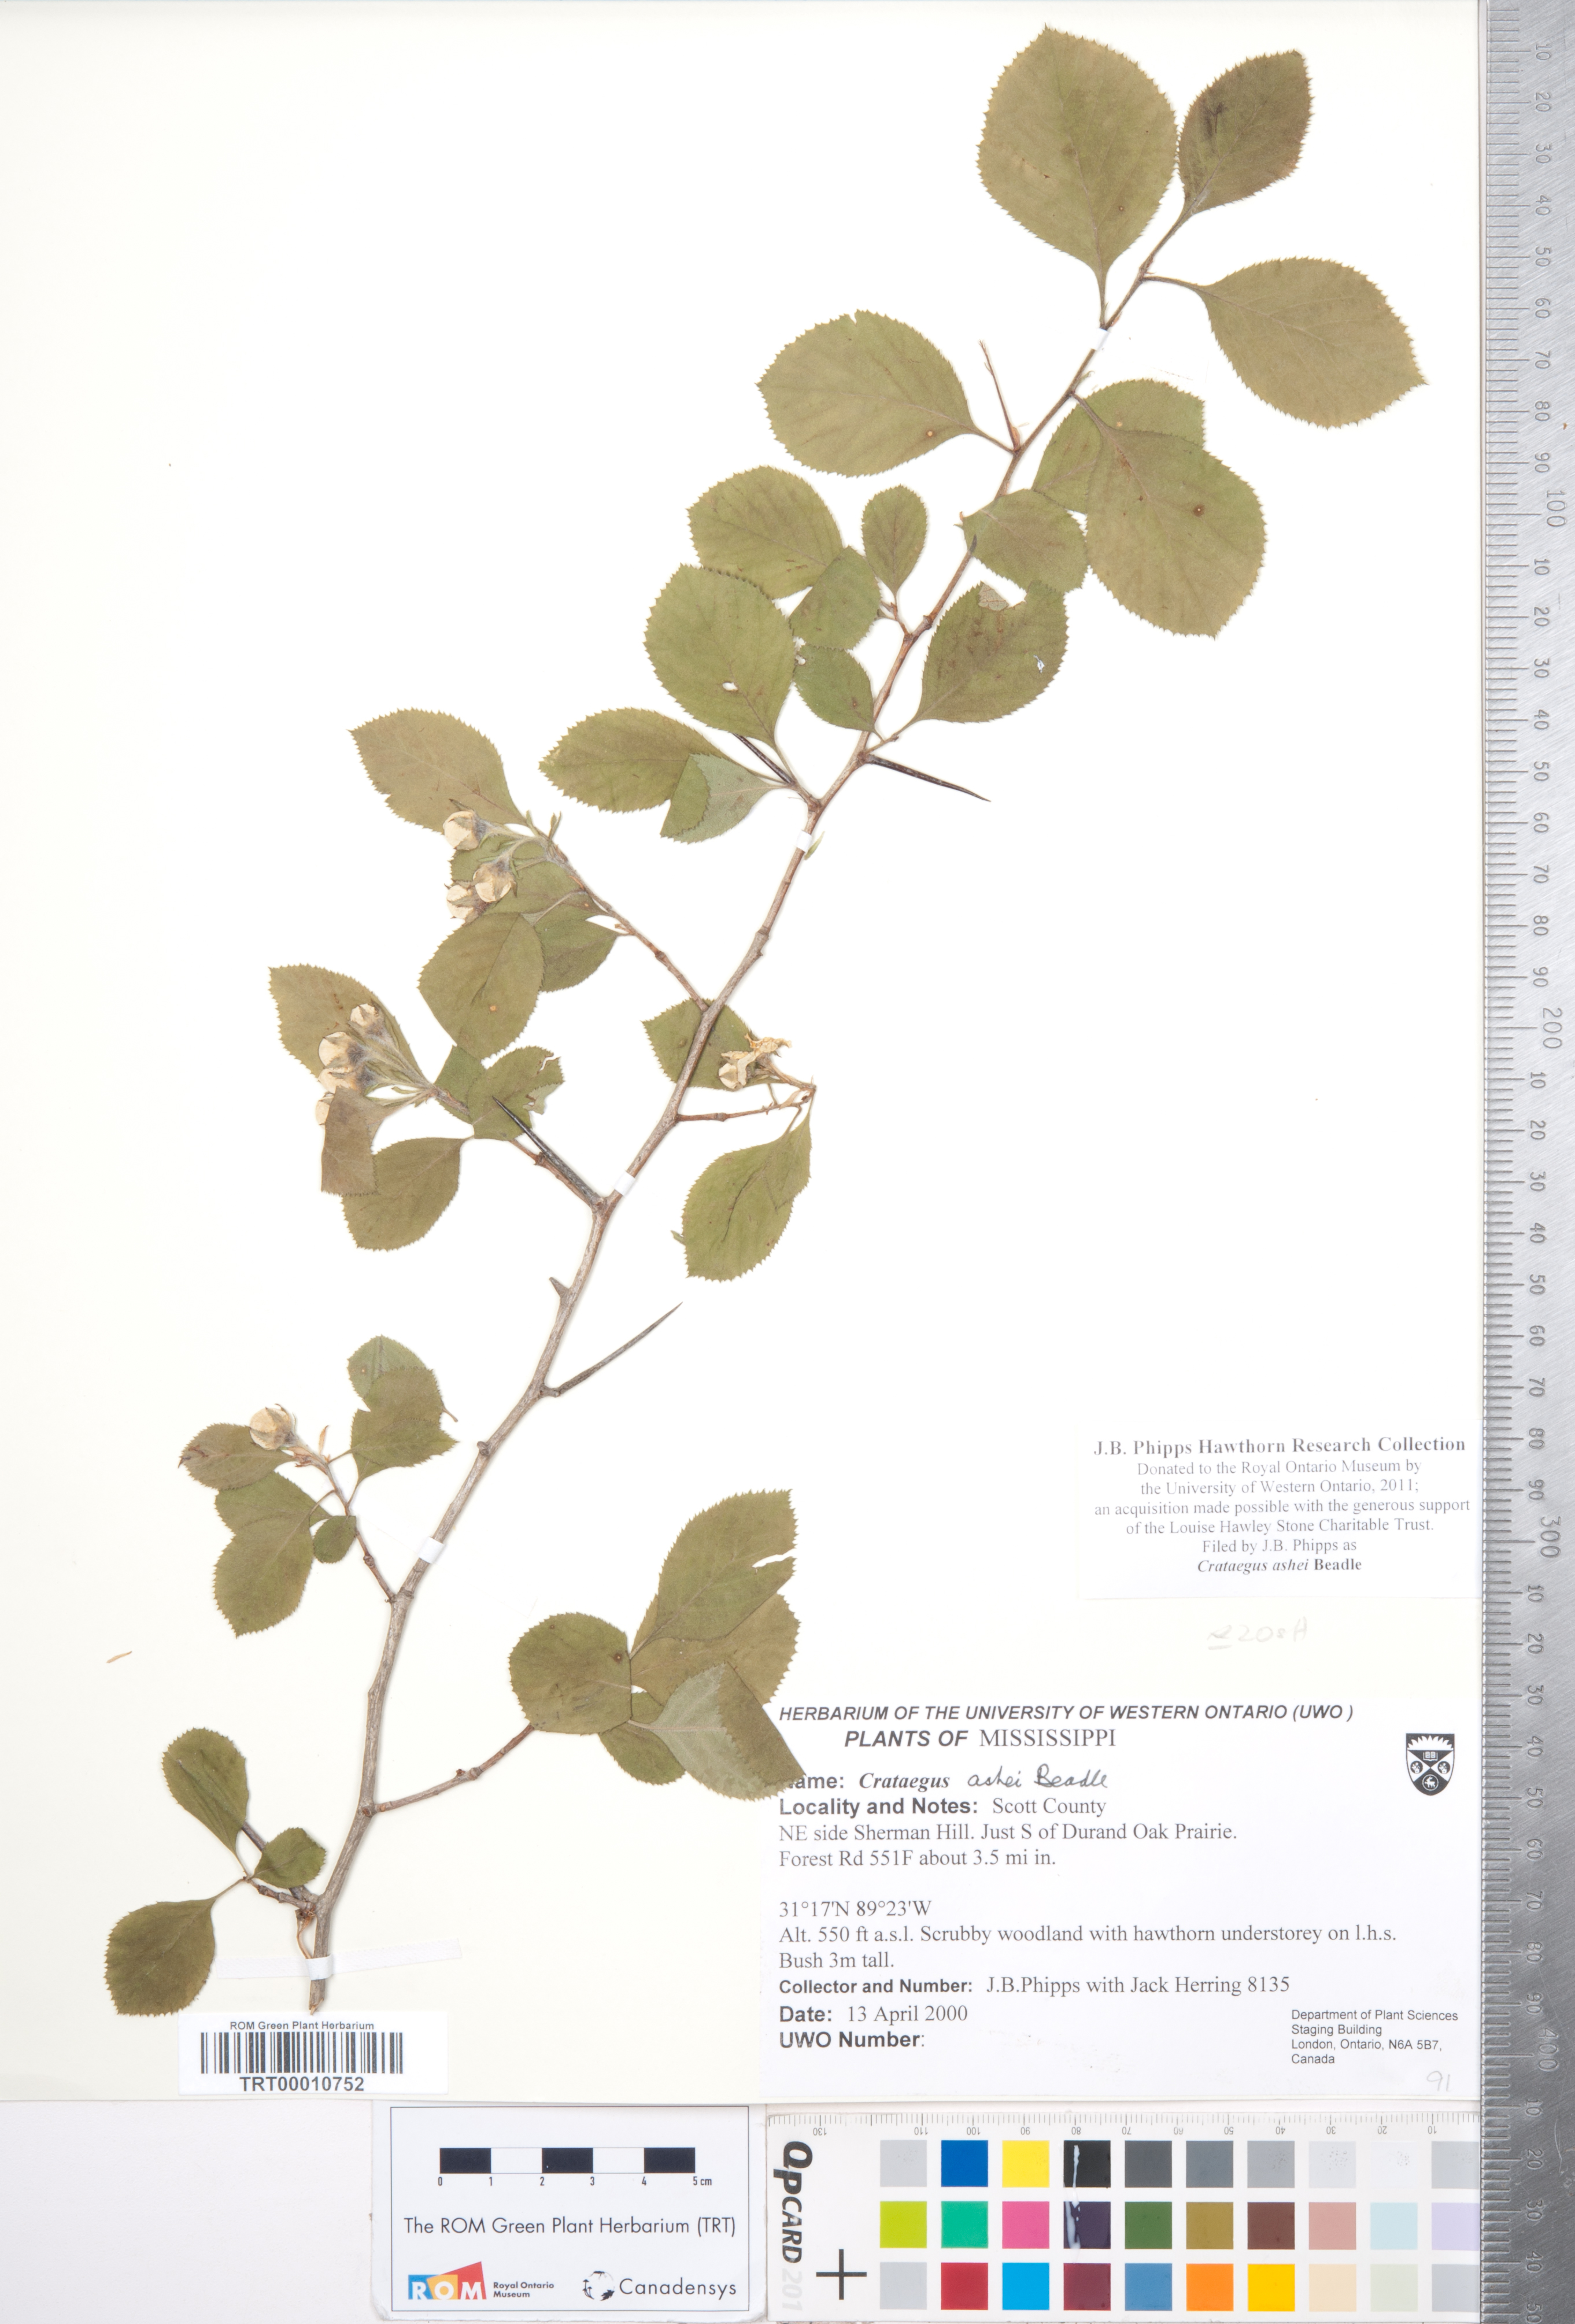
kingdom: Plantae
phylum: Tracheophyta
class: Magnoliopsida
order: Rosales
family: Rosaceae
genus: Crataegus
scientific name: Crataegus ashei
